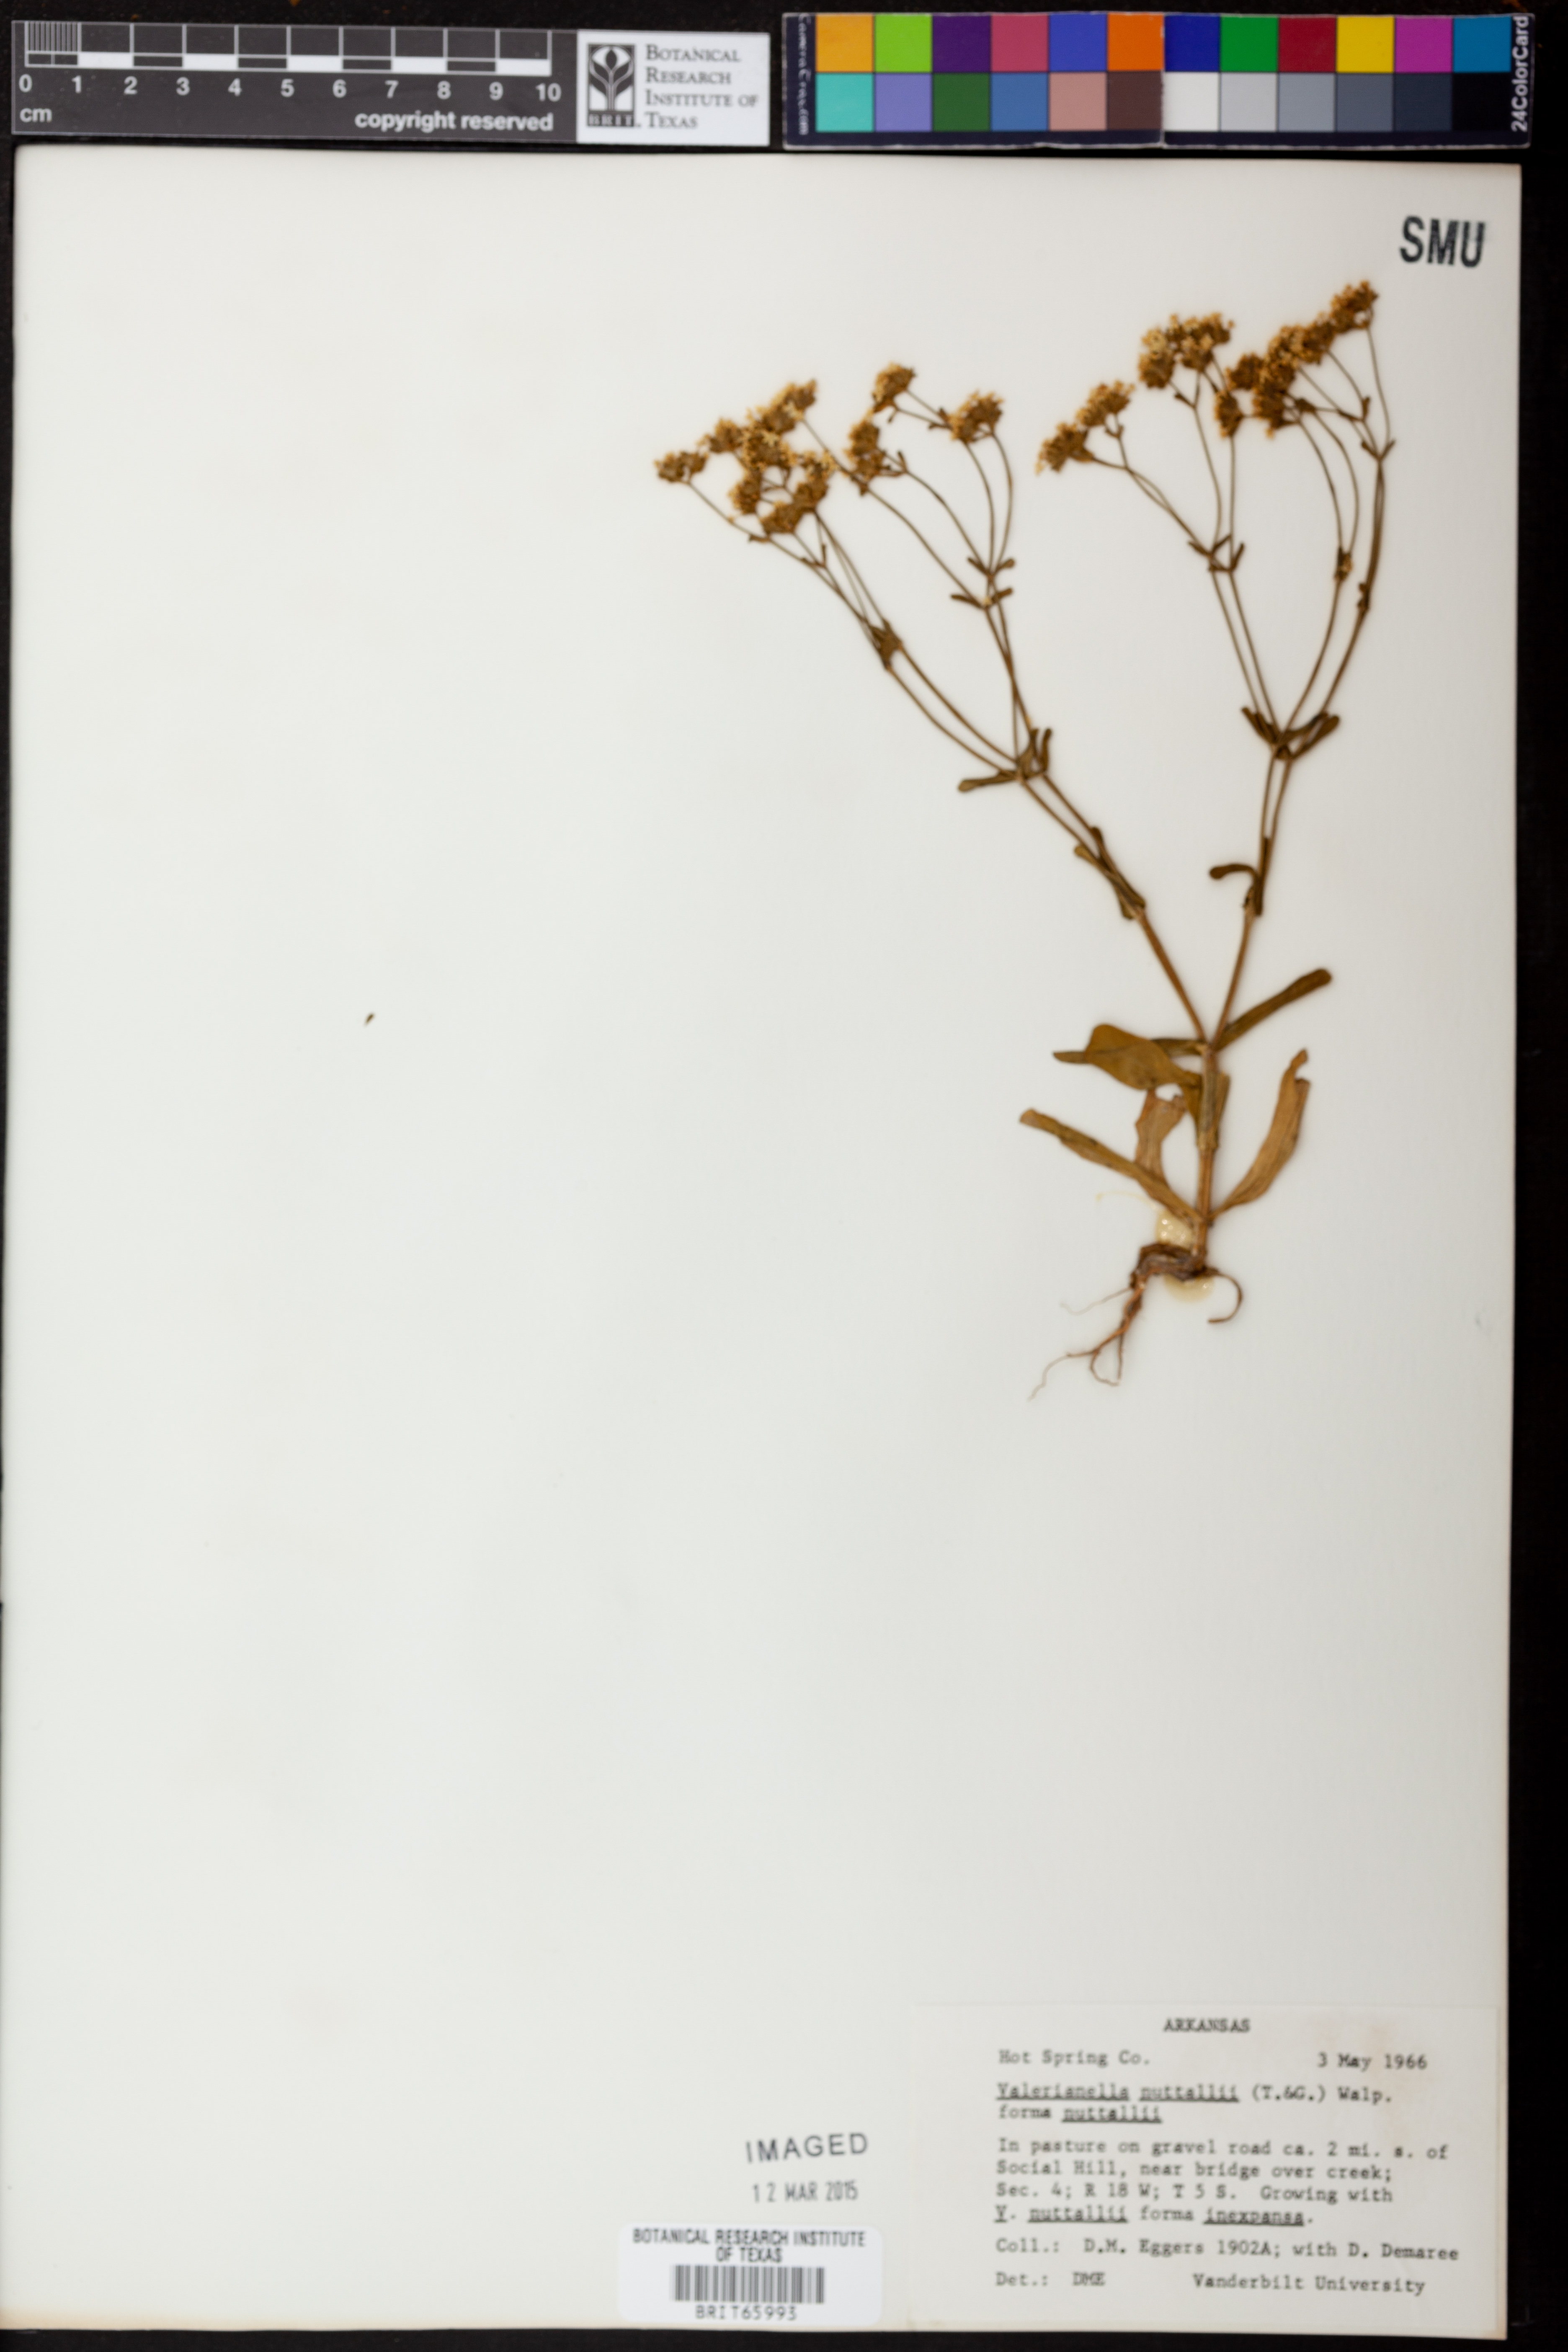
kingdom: Plantae
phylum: Tracheophyta
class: Magnoliopsida
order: Dipsacales
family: Caprifoliaceae
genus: Valerianella
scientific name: Valerianella nuttallii
